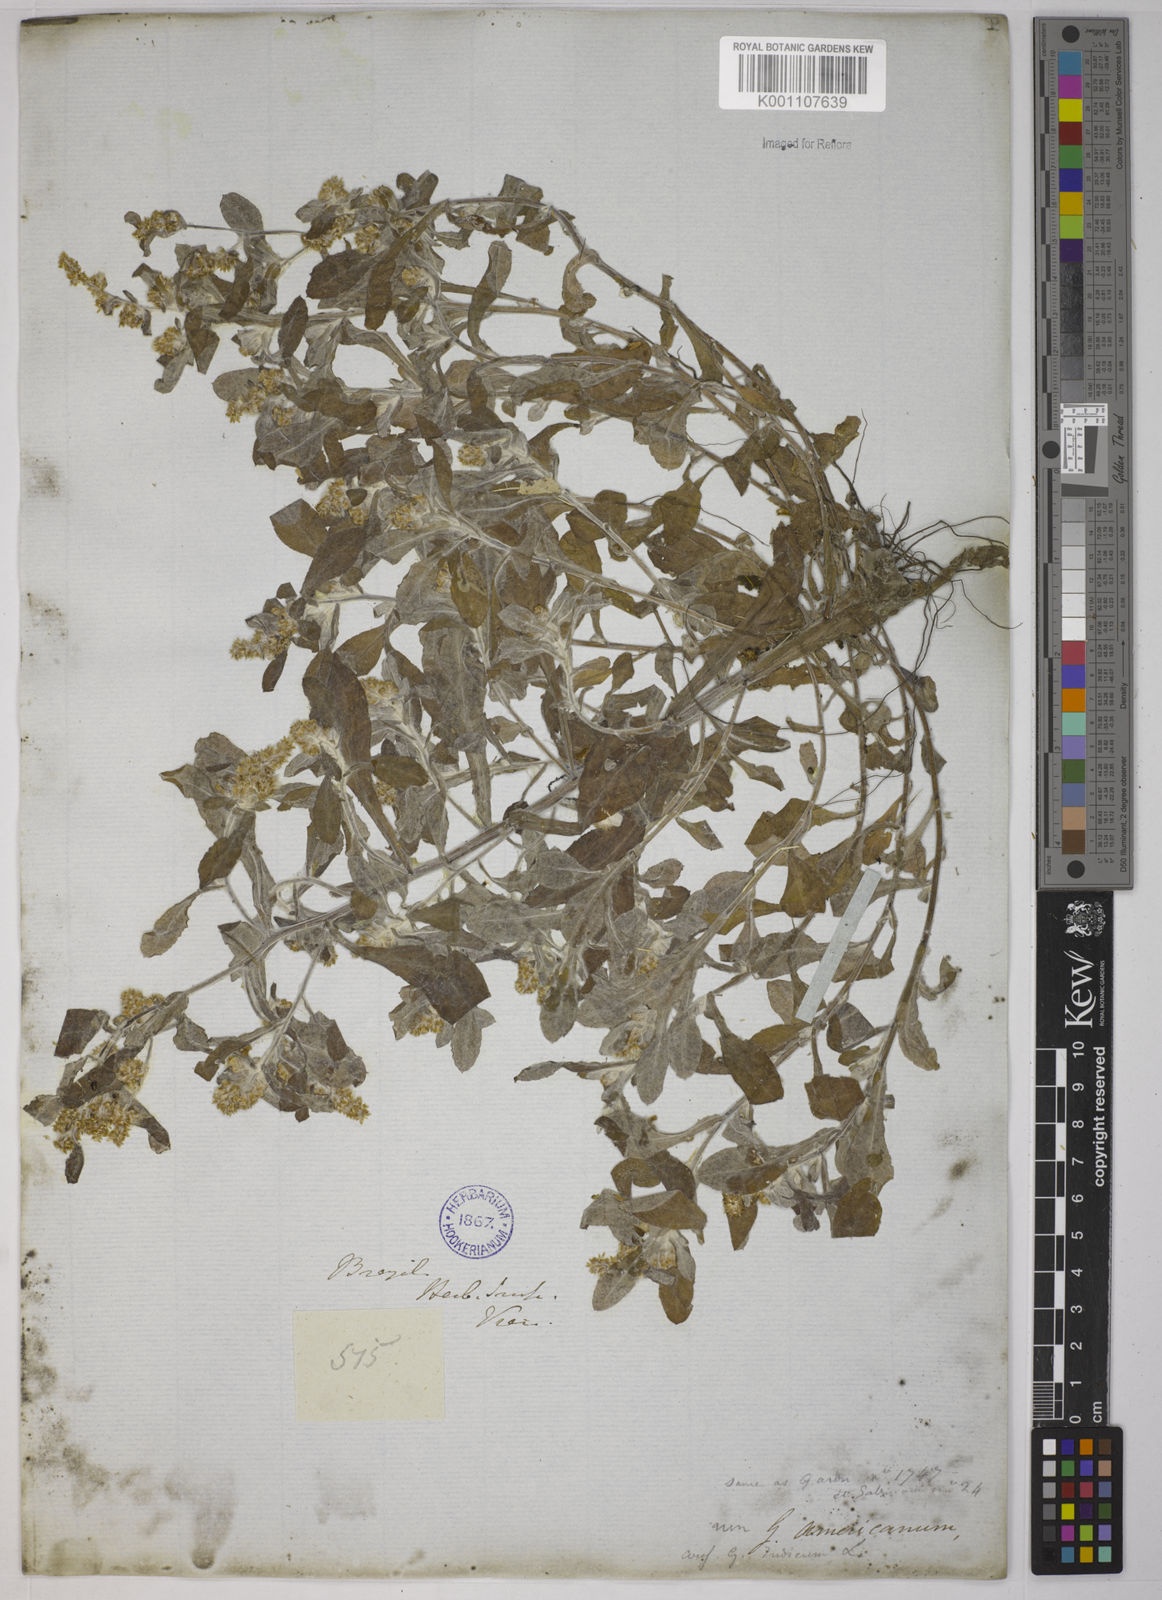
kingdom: Plantae
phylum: Tracheophyta
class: Magnoliopsida
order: Asterales
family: Asteraceae
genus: Gamochaeta
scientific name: Gamochaeta americana
